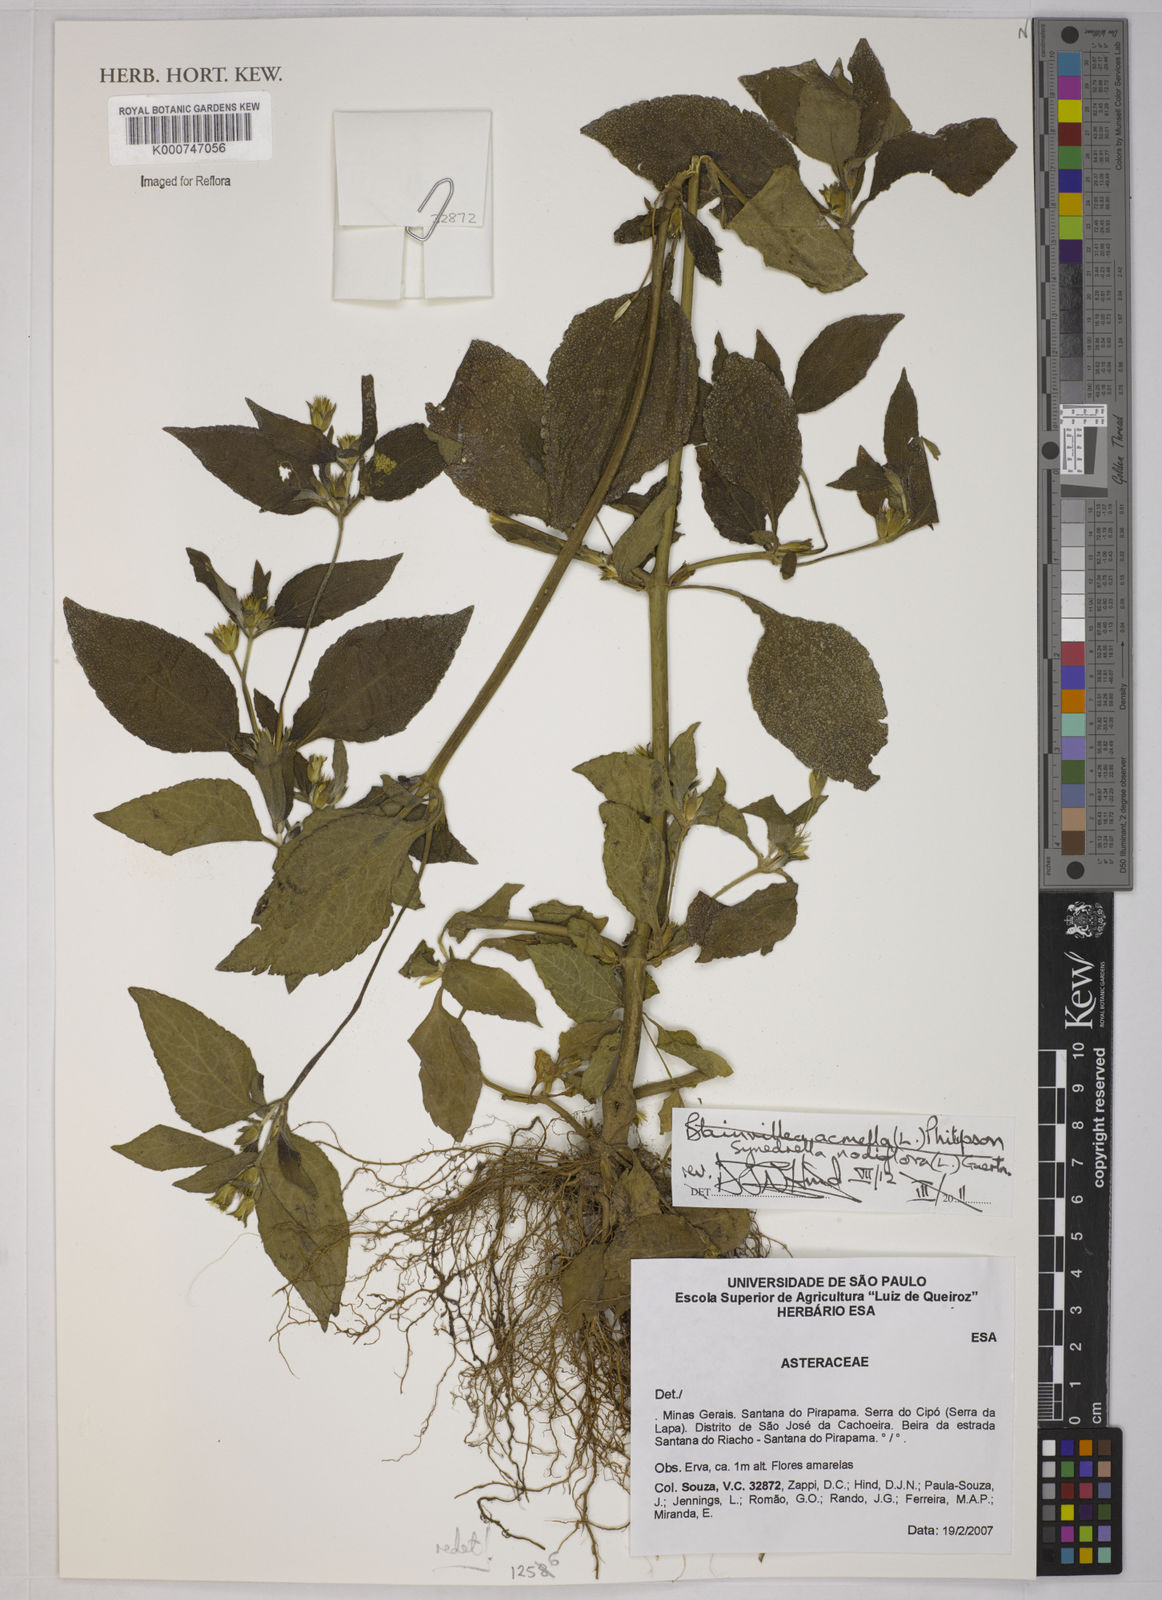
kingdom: Plantae
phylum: Tracheophyta
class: Magnoliopsida
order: Asterales
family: Asteraceae
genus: Synedrella
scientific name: Synedrella nodiflora
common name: Nodeweed
